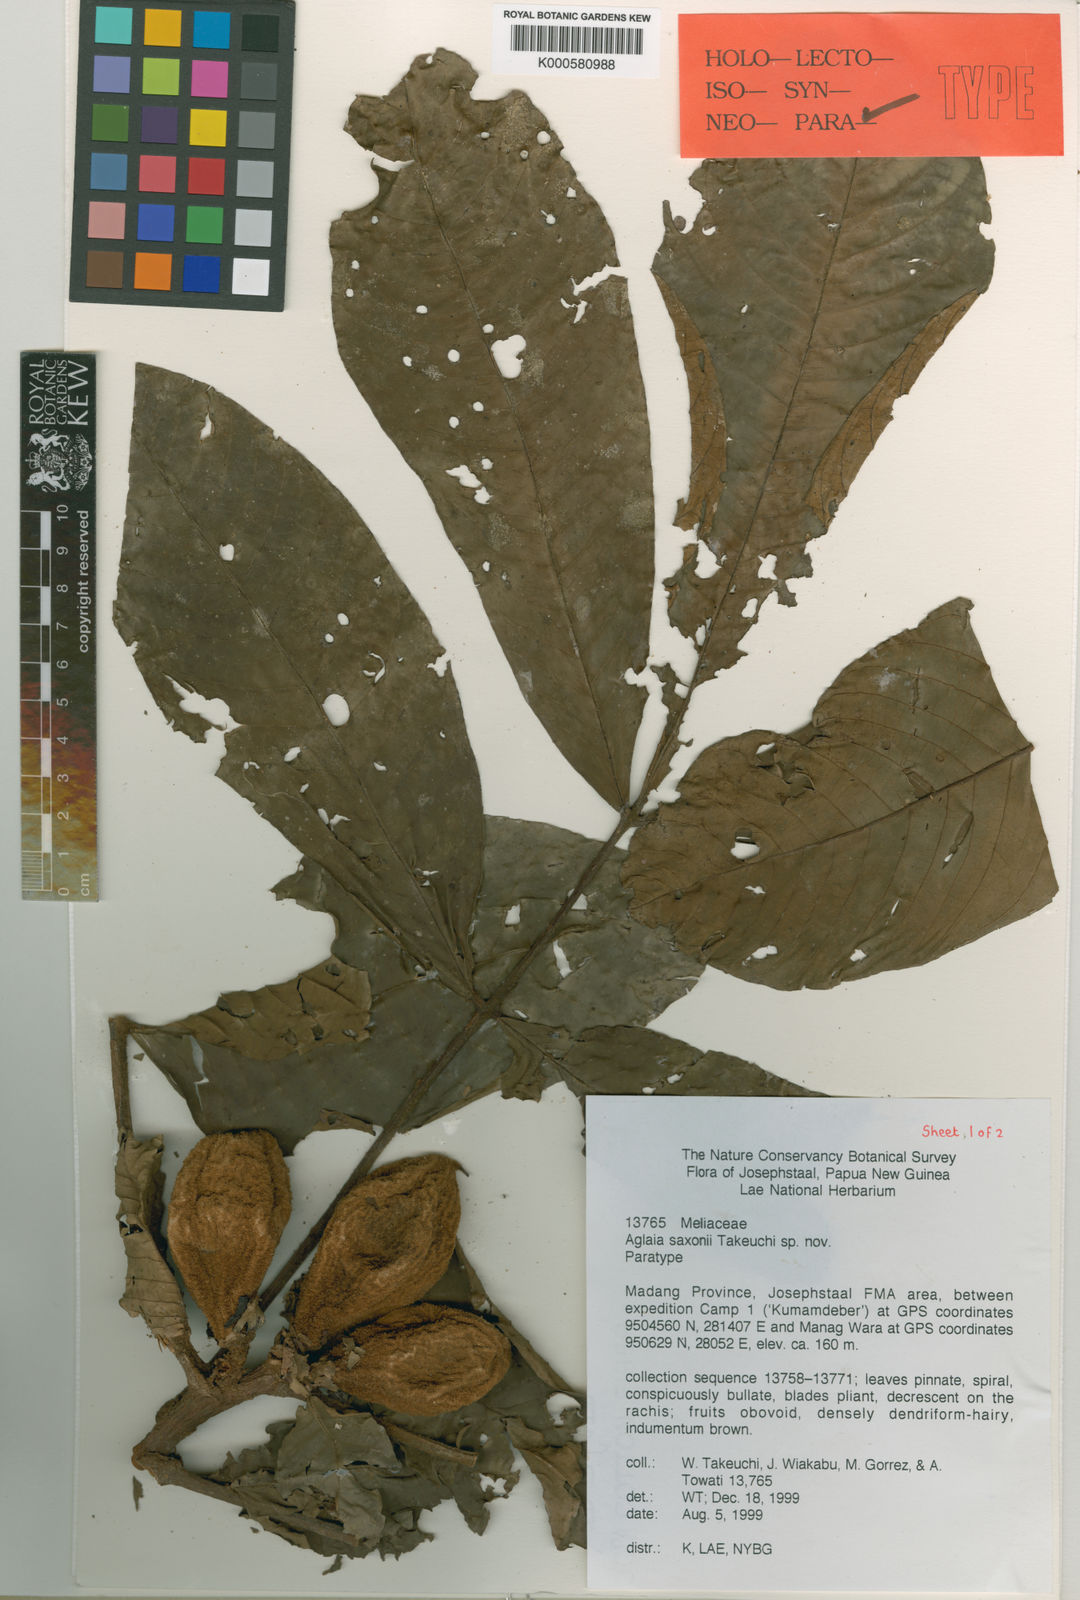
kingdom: Plantae
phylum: Tracheophyta
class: Magnoliopsida
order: Sapindales
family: Meliaceae
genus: Aglaia
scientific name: Aglaia saxonii
